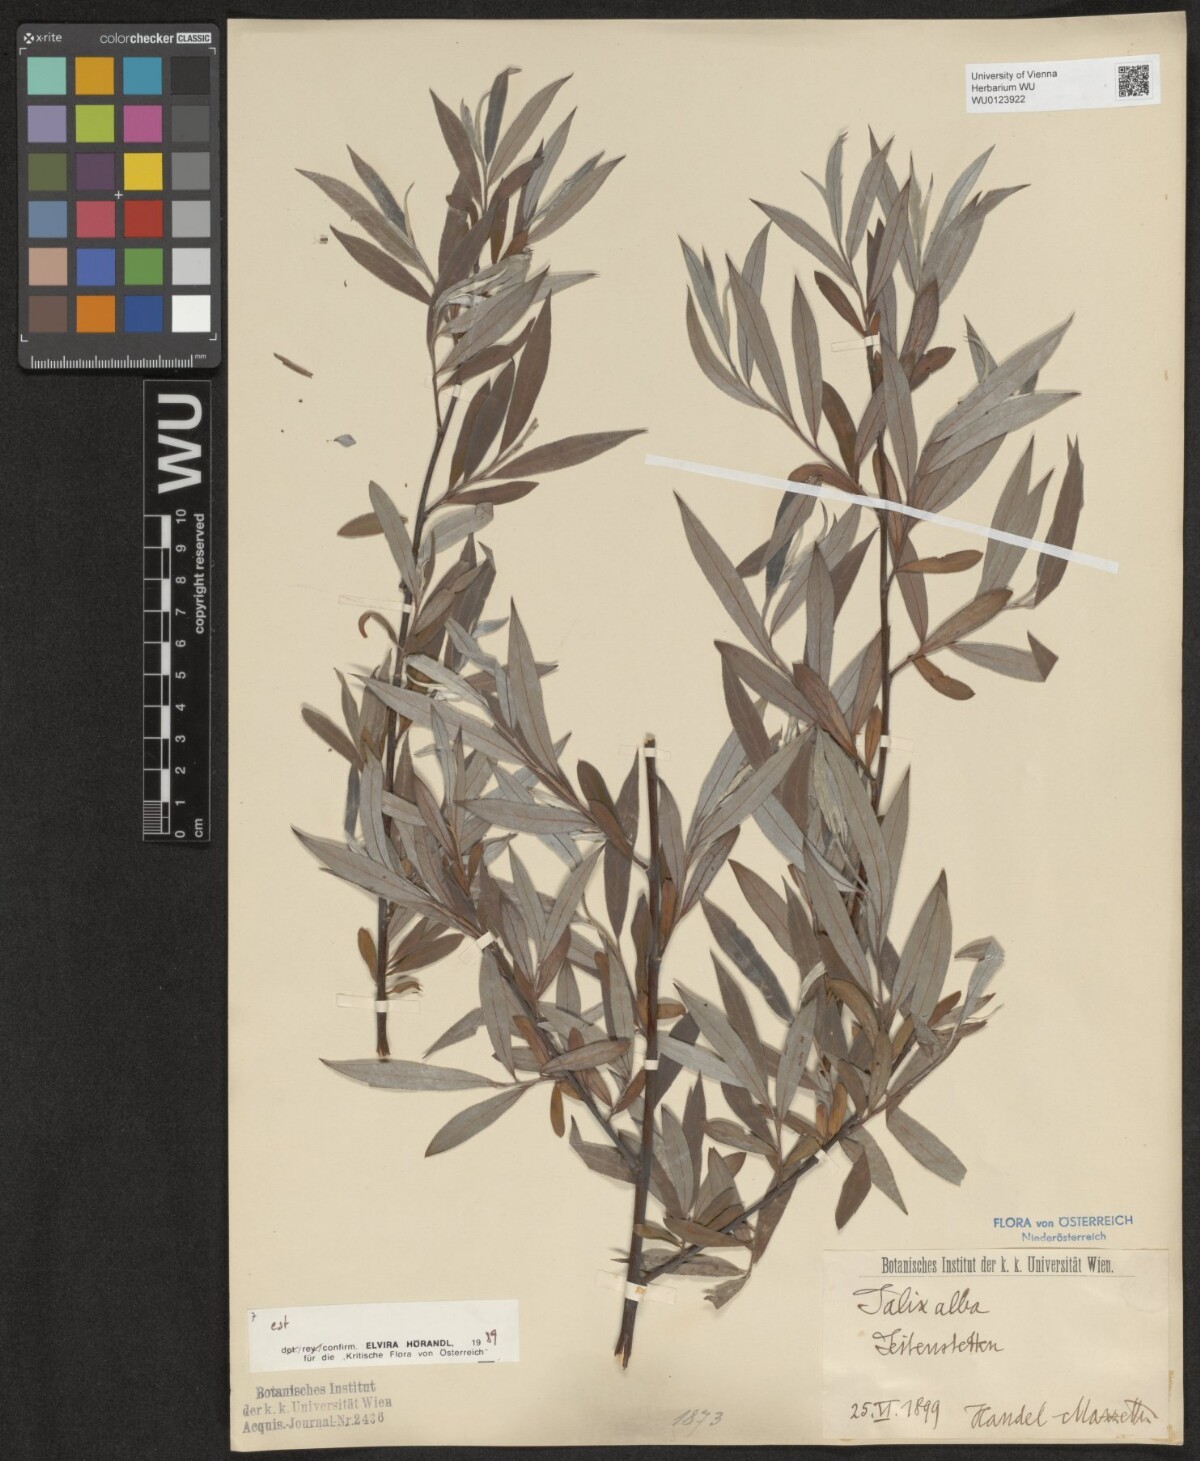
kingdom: Plantae
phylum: Tracheophyta
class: Magnoliopsida
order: Malpighiales
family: Salicaceae
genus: Salix
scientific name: Salix alba
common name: White willow
